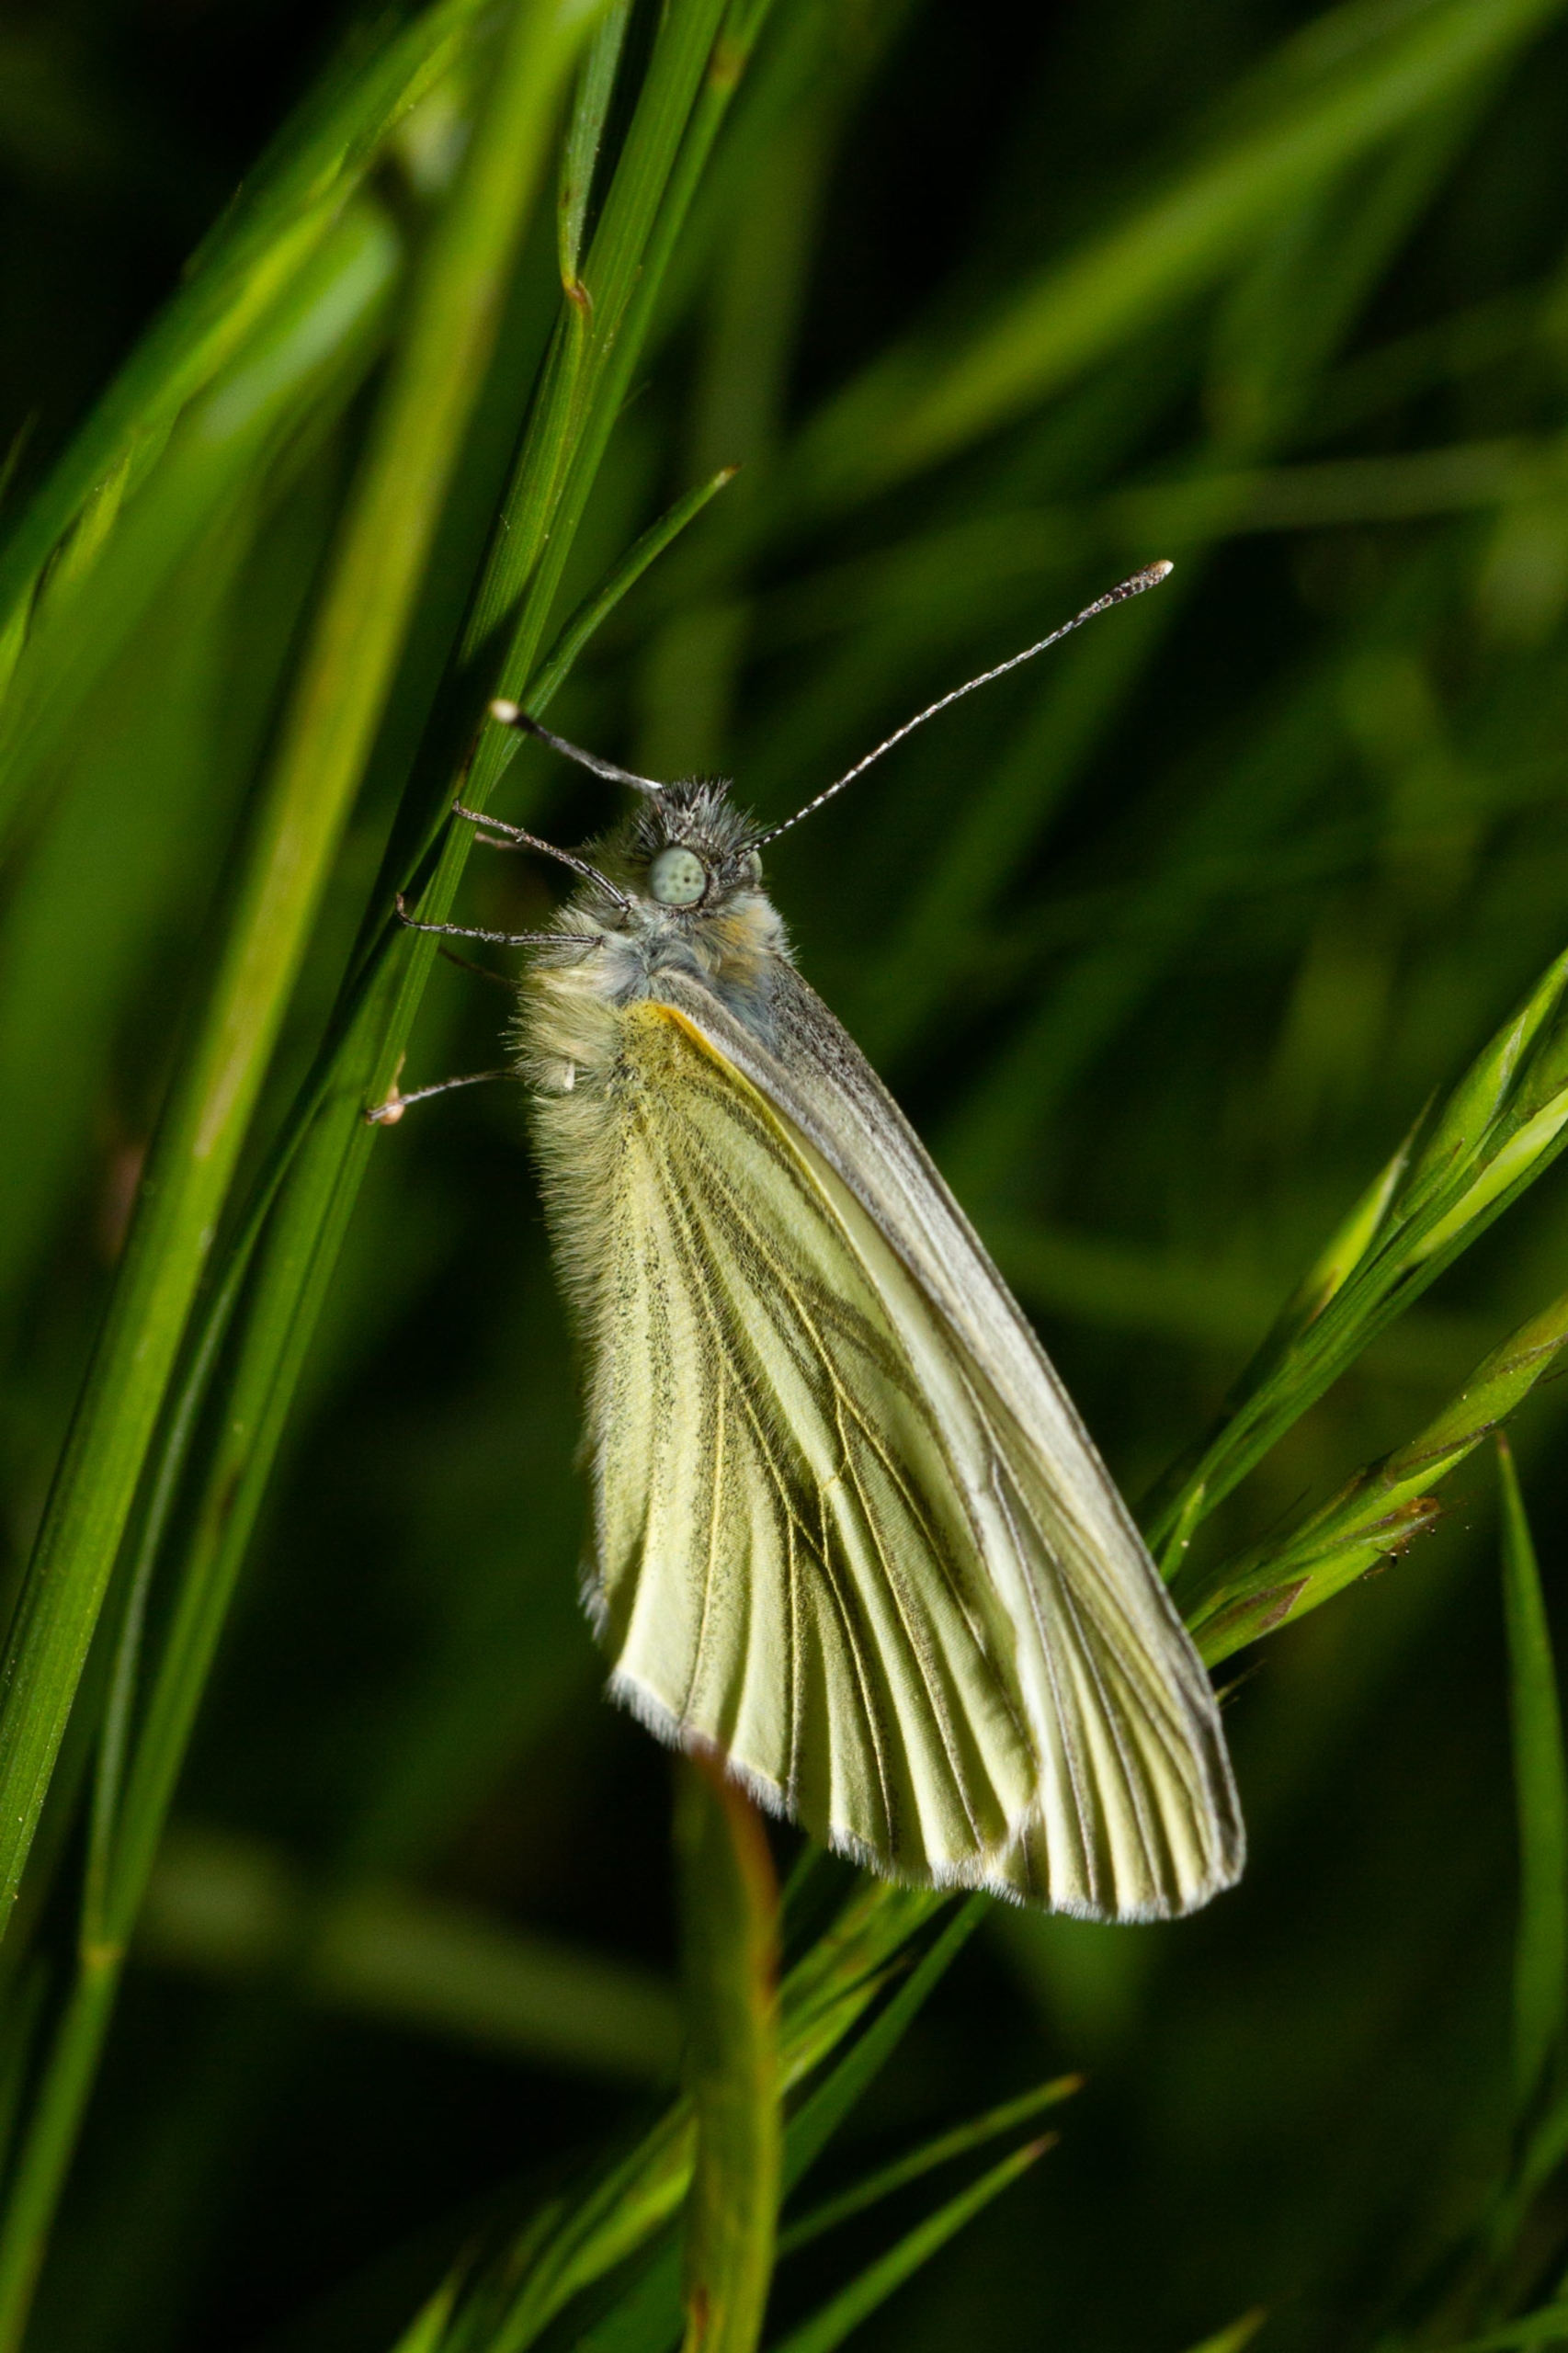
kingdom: Animalia
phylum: Arthropoda
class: Insecta
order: Lepidoptera
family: Pieridae
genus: Pieris
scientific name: Pieris napi
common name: Grønåret kålsommerfugl
